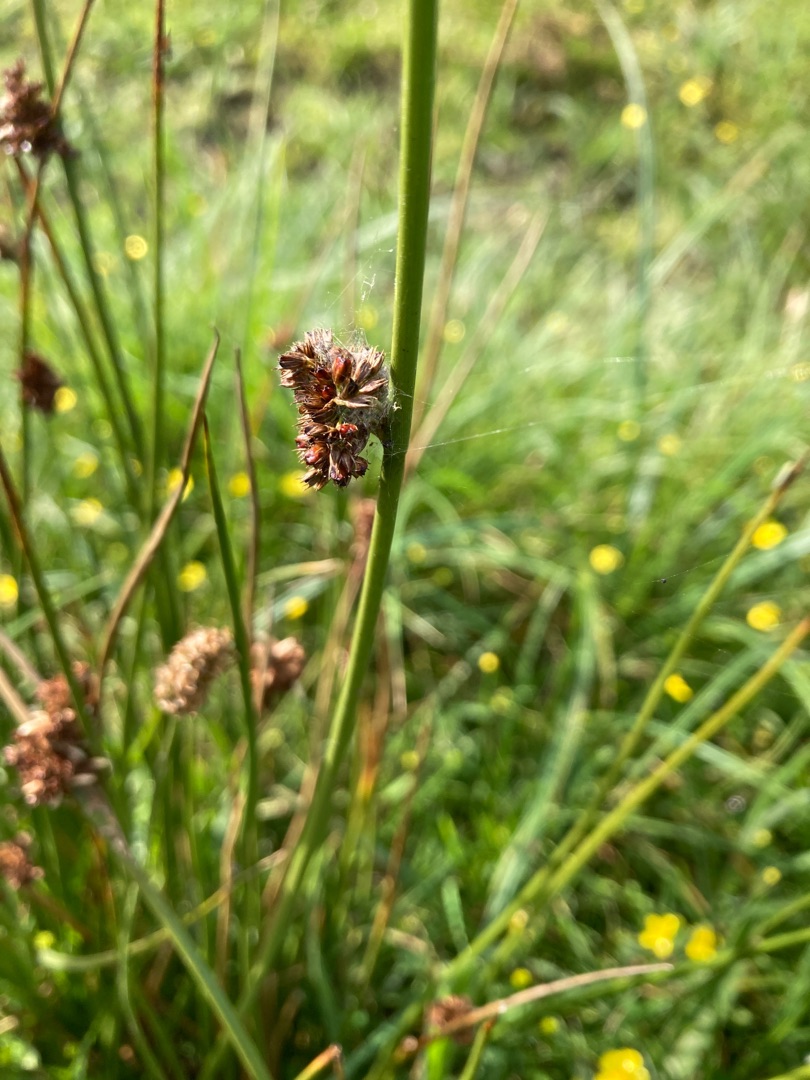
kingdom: Plantae
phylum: Tracheophyta
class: Liliopsida
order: Poales
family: Juncaceae
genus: Juncus
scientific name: Juncus effusus
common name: Lyse-siv
